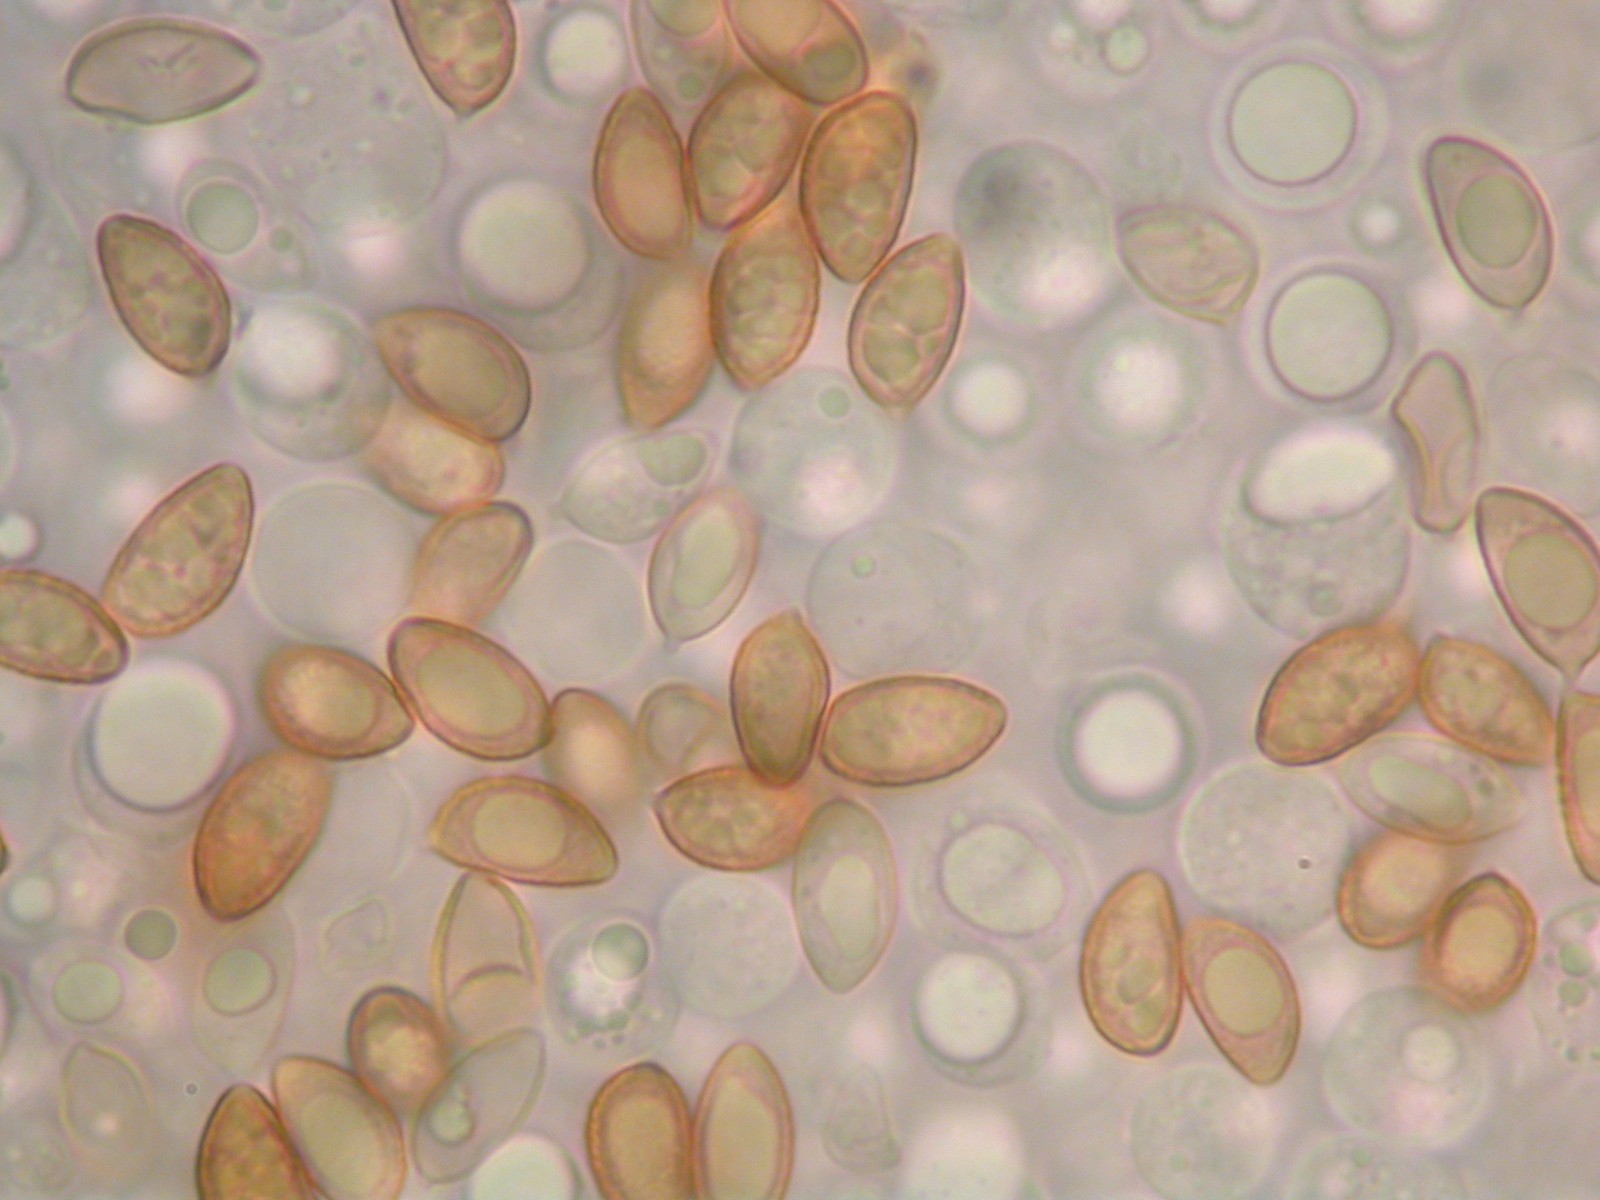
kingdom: Fungi
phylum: Basidiomycota
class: Agaricomycetes
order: Agaricales
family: Hymenogastraceae
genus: Hebeloma
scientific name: Hebeloma aanenii
